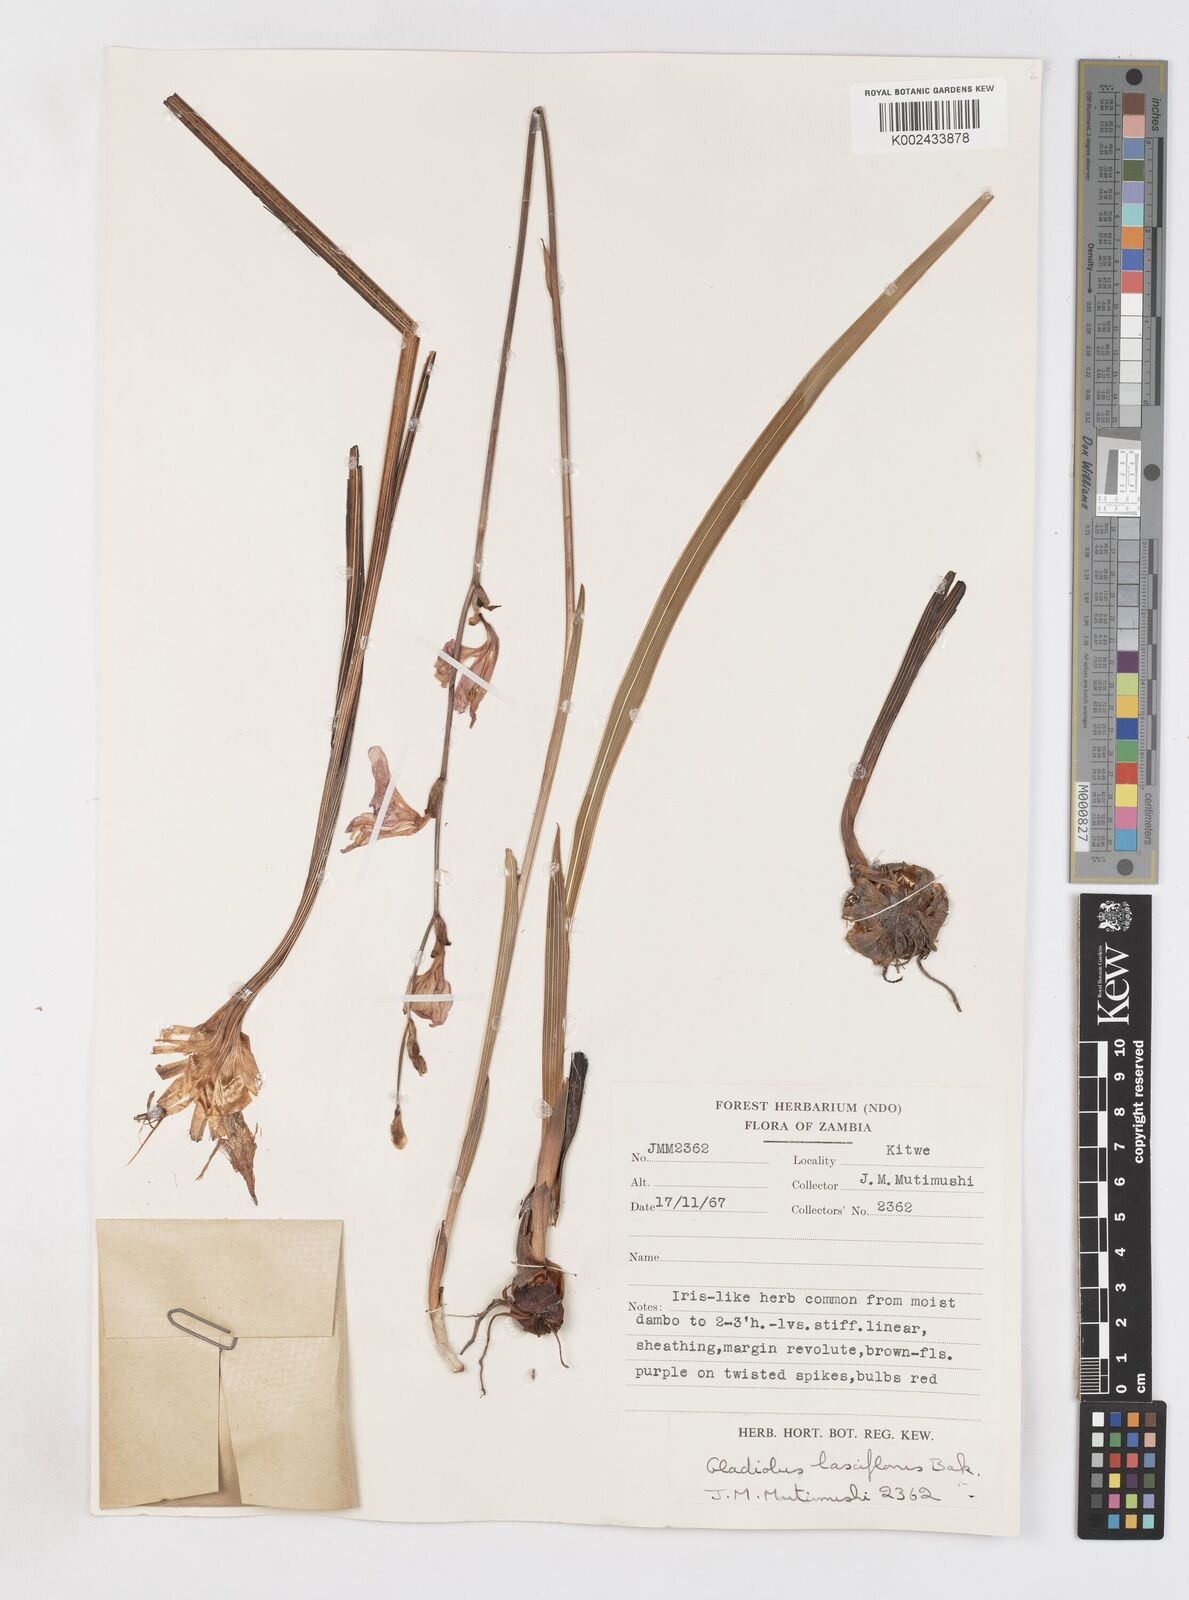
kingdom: Plantae
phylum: Tracheophyta
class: Liliopsida
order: Asparagales
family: Iridaceae
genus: Gladiolus
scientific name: Gladiolus laxiflorus
